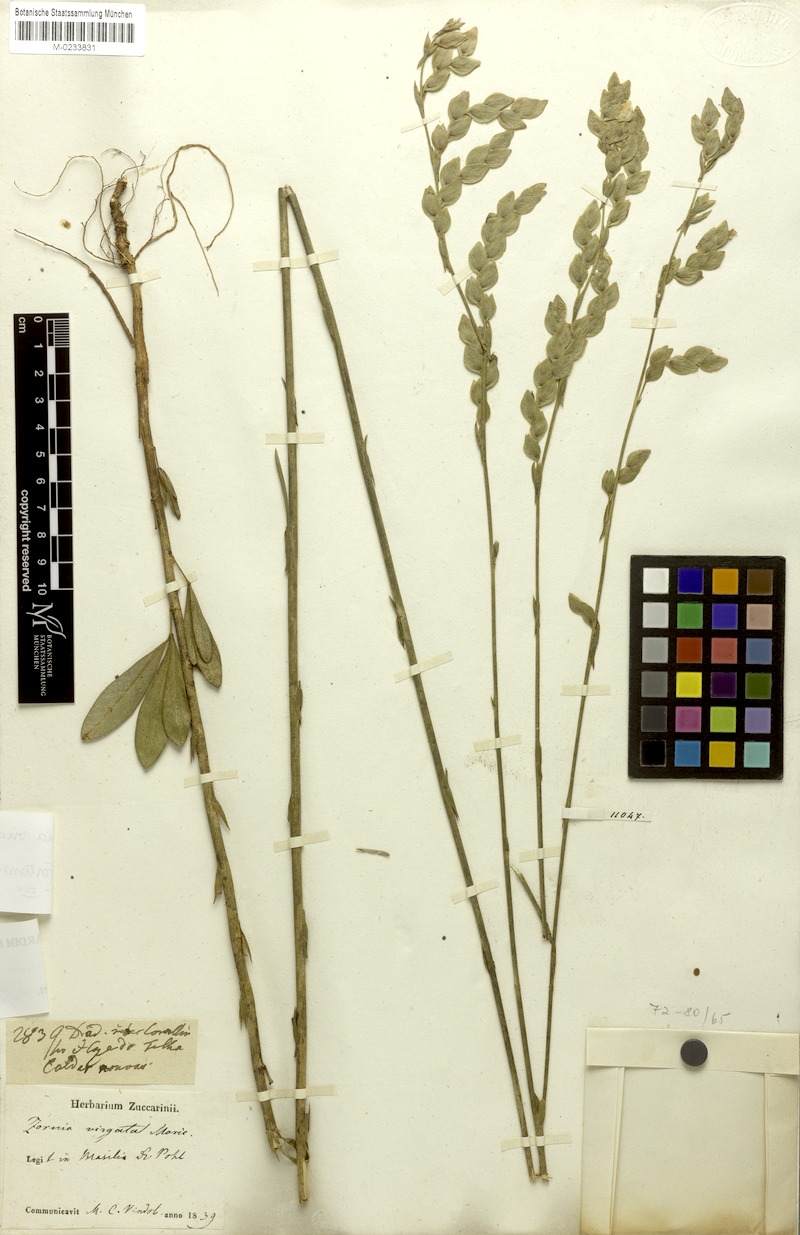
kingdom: Plantae
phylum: Tracheophyta
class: Magnoliopsida
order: Fabales
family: Fabaceae
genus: Zornia
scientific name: Zornia virgata
